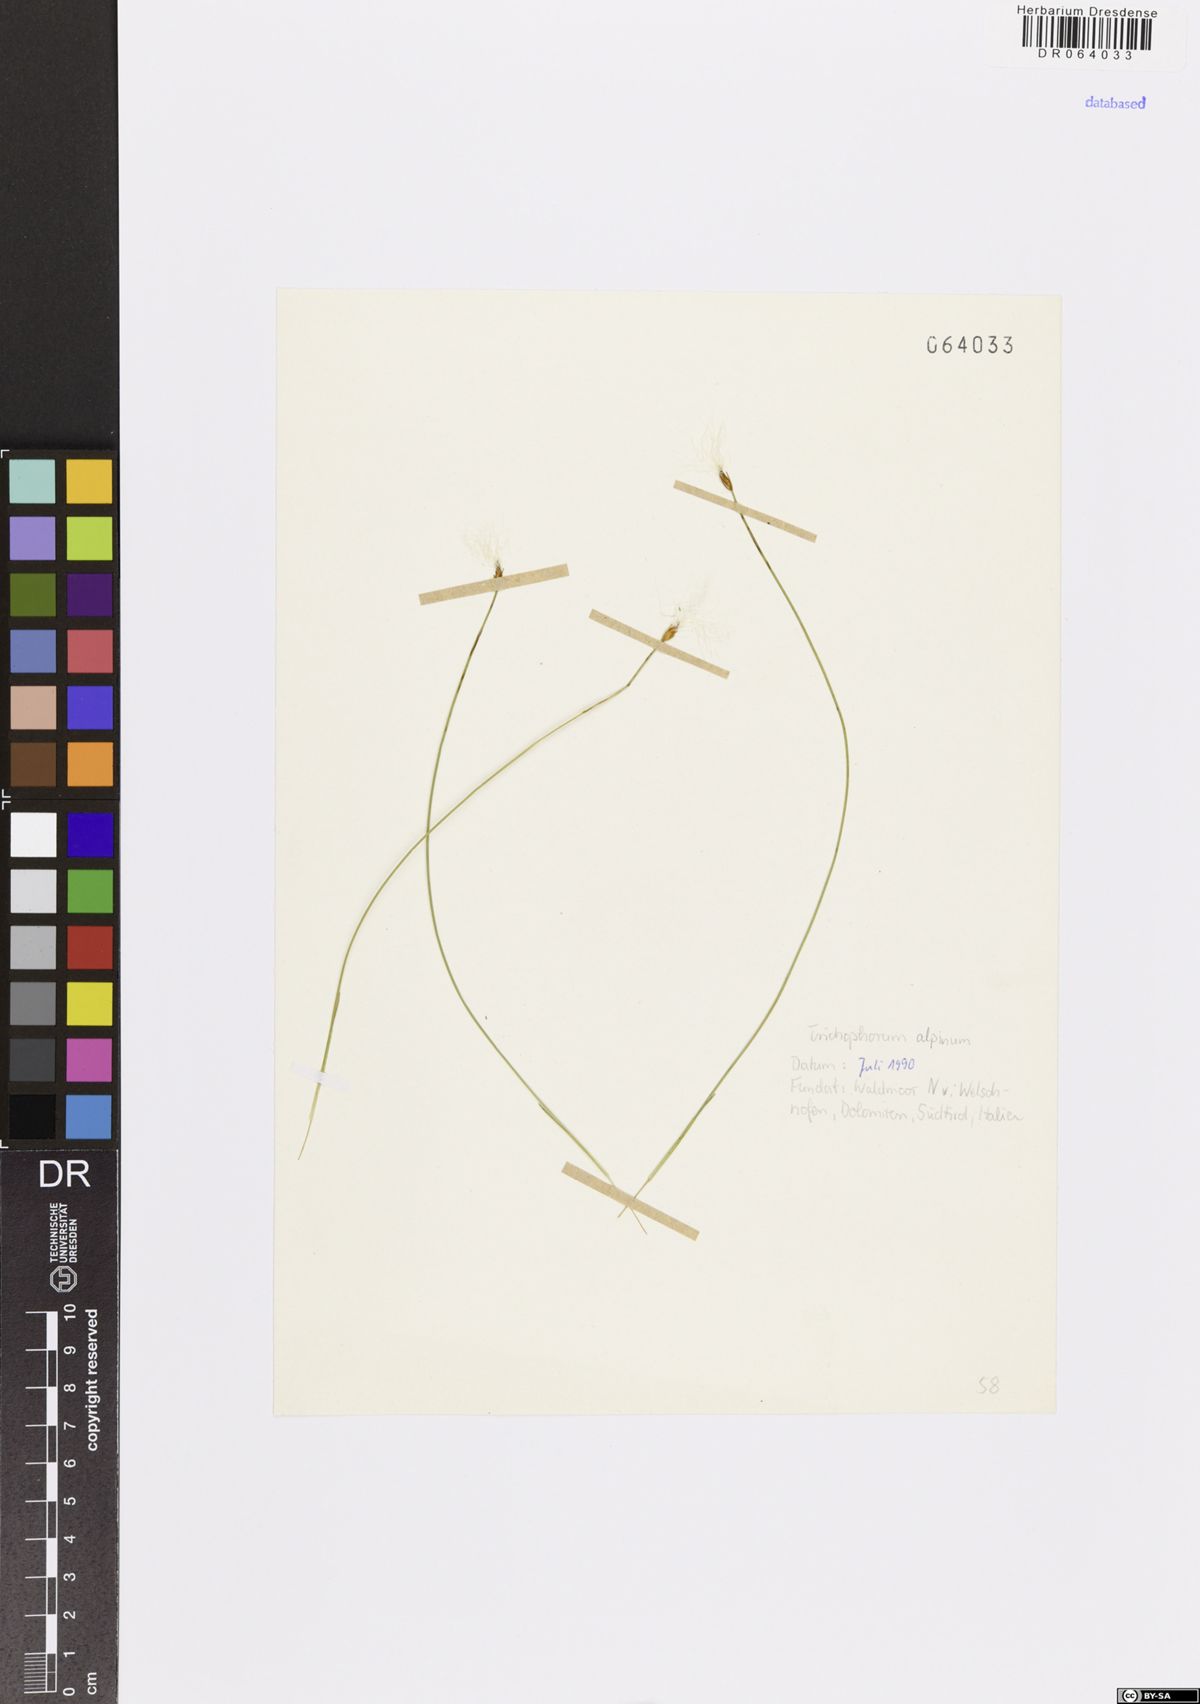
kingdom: Plantae
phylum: Tracheophyta
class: Liliopsida
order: Poales
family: Cyperaceae
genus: Trichophorum
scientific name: Trichophorum alpinum
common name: Alpine bulrush
